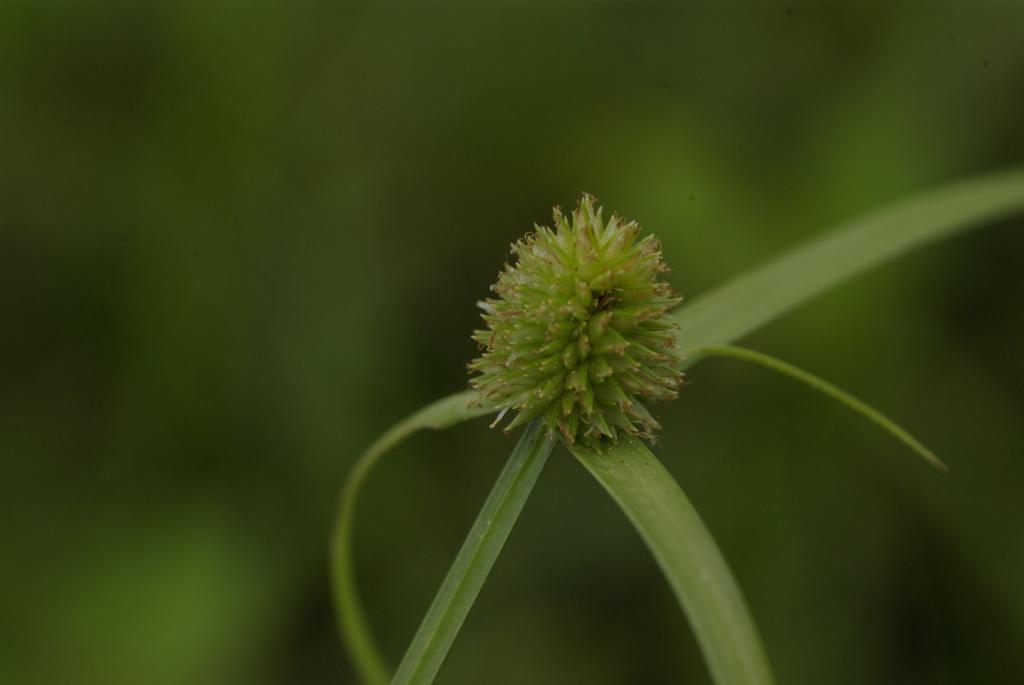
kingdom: Plantae
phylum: Tracheophyta
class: Liliopsida
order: Poales
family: Cyperaceae
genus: Cyperus
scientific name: Cyperus brevifolius
